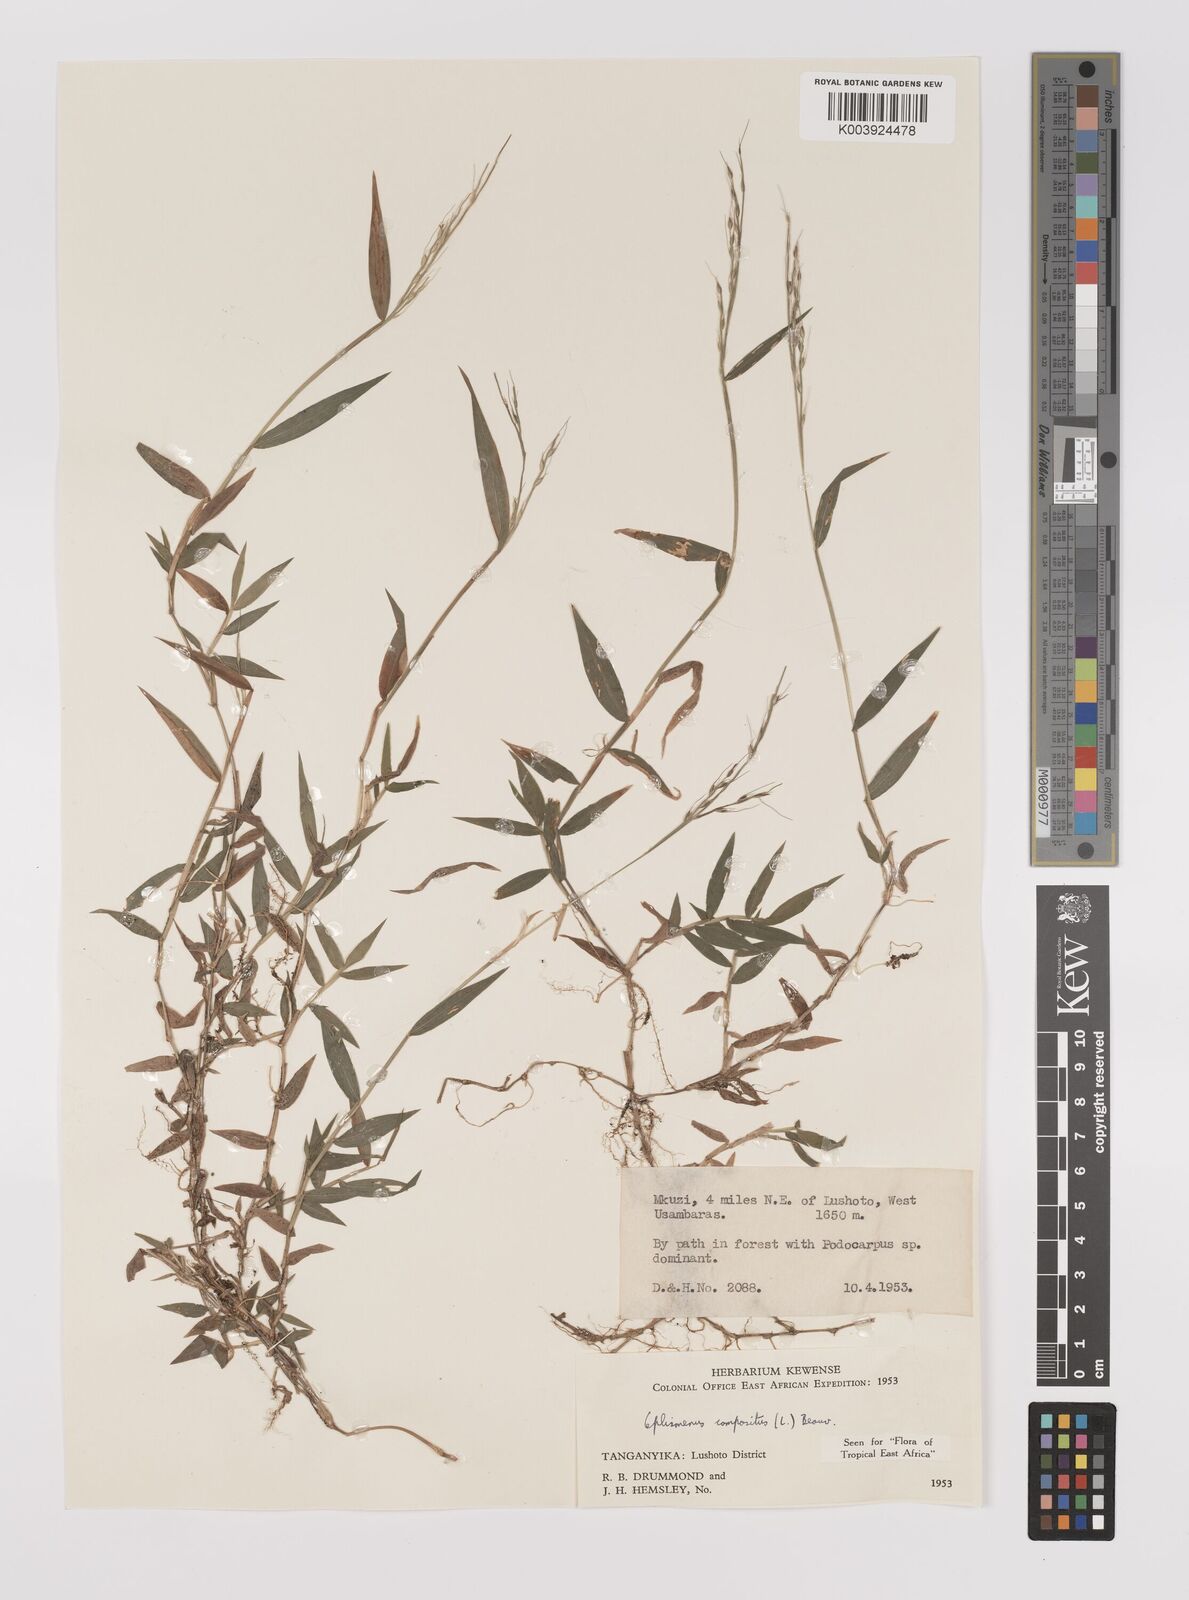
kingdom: Plantae
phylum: Tracheophyta
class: Liliopsida
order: Poales
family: Poaceae
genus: Oplismenus
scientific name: Oplismenus compositus
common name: Running mountain grass
